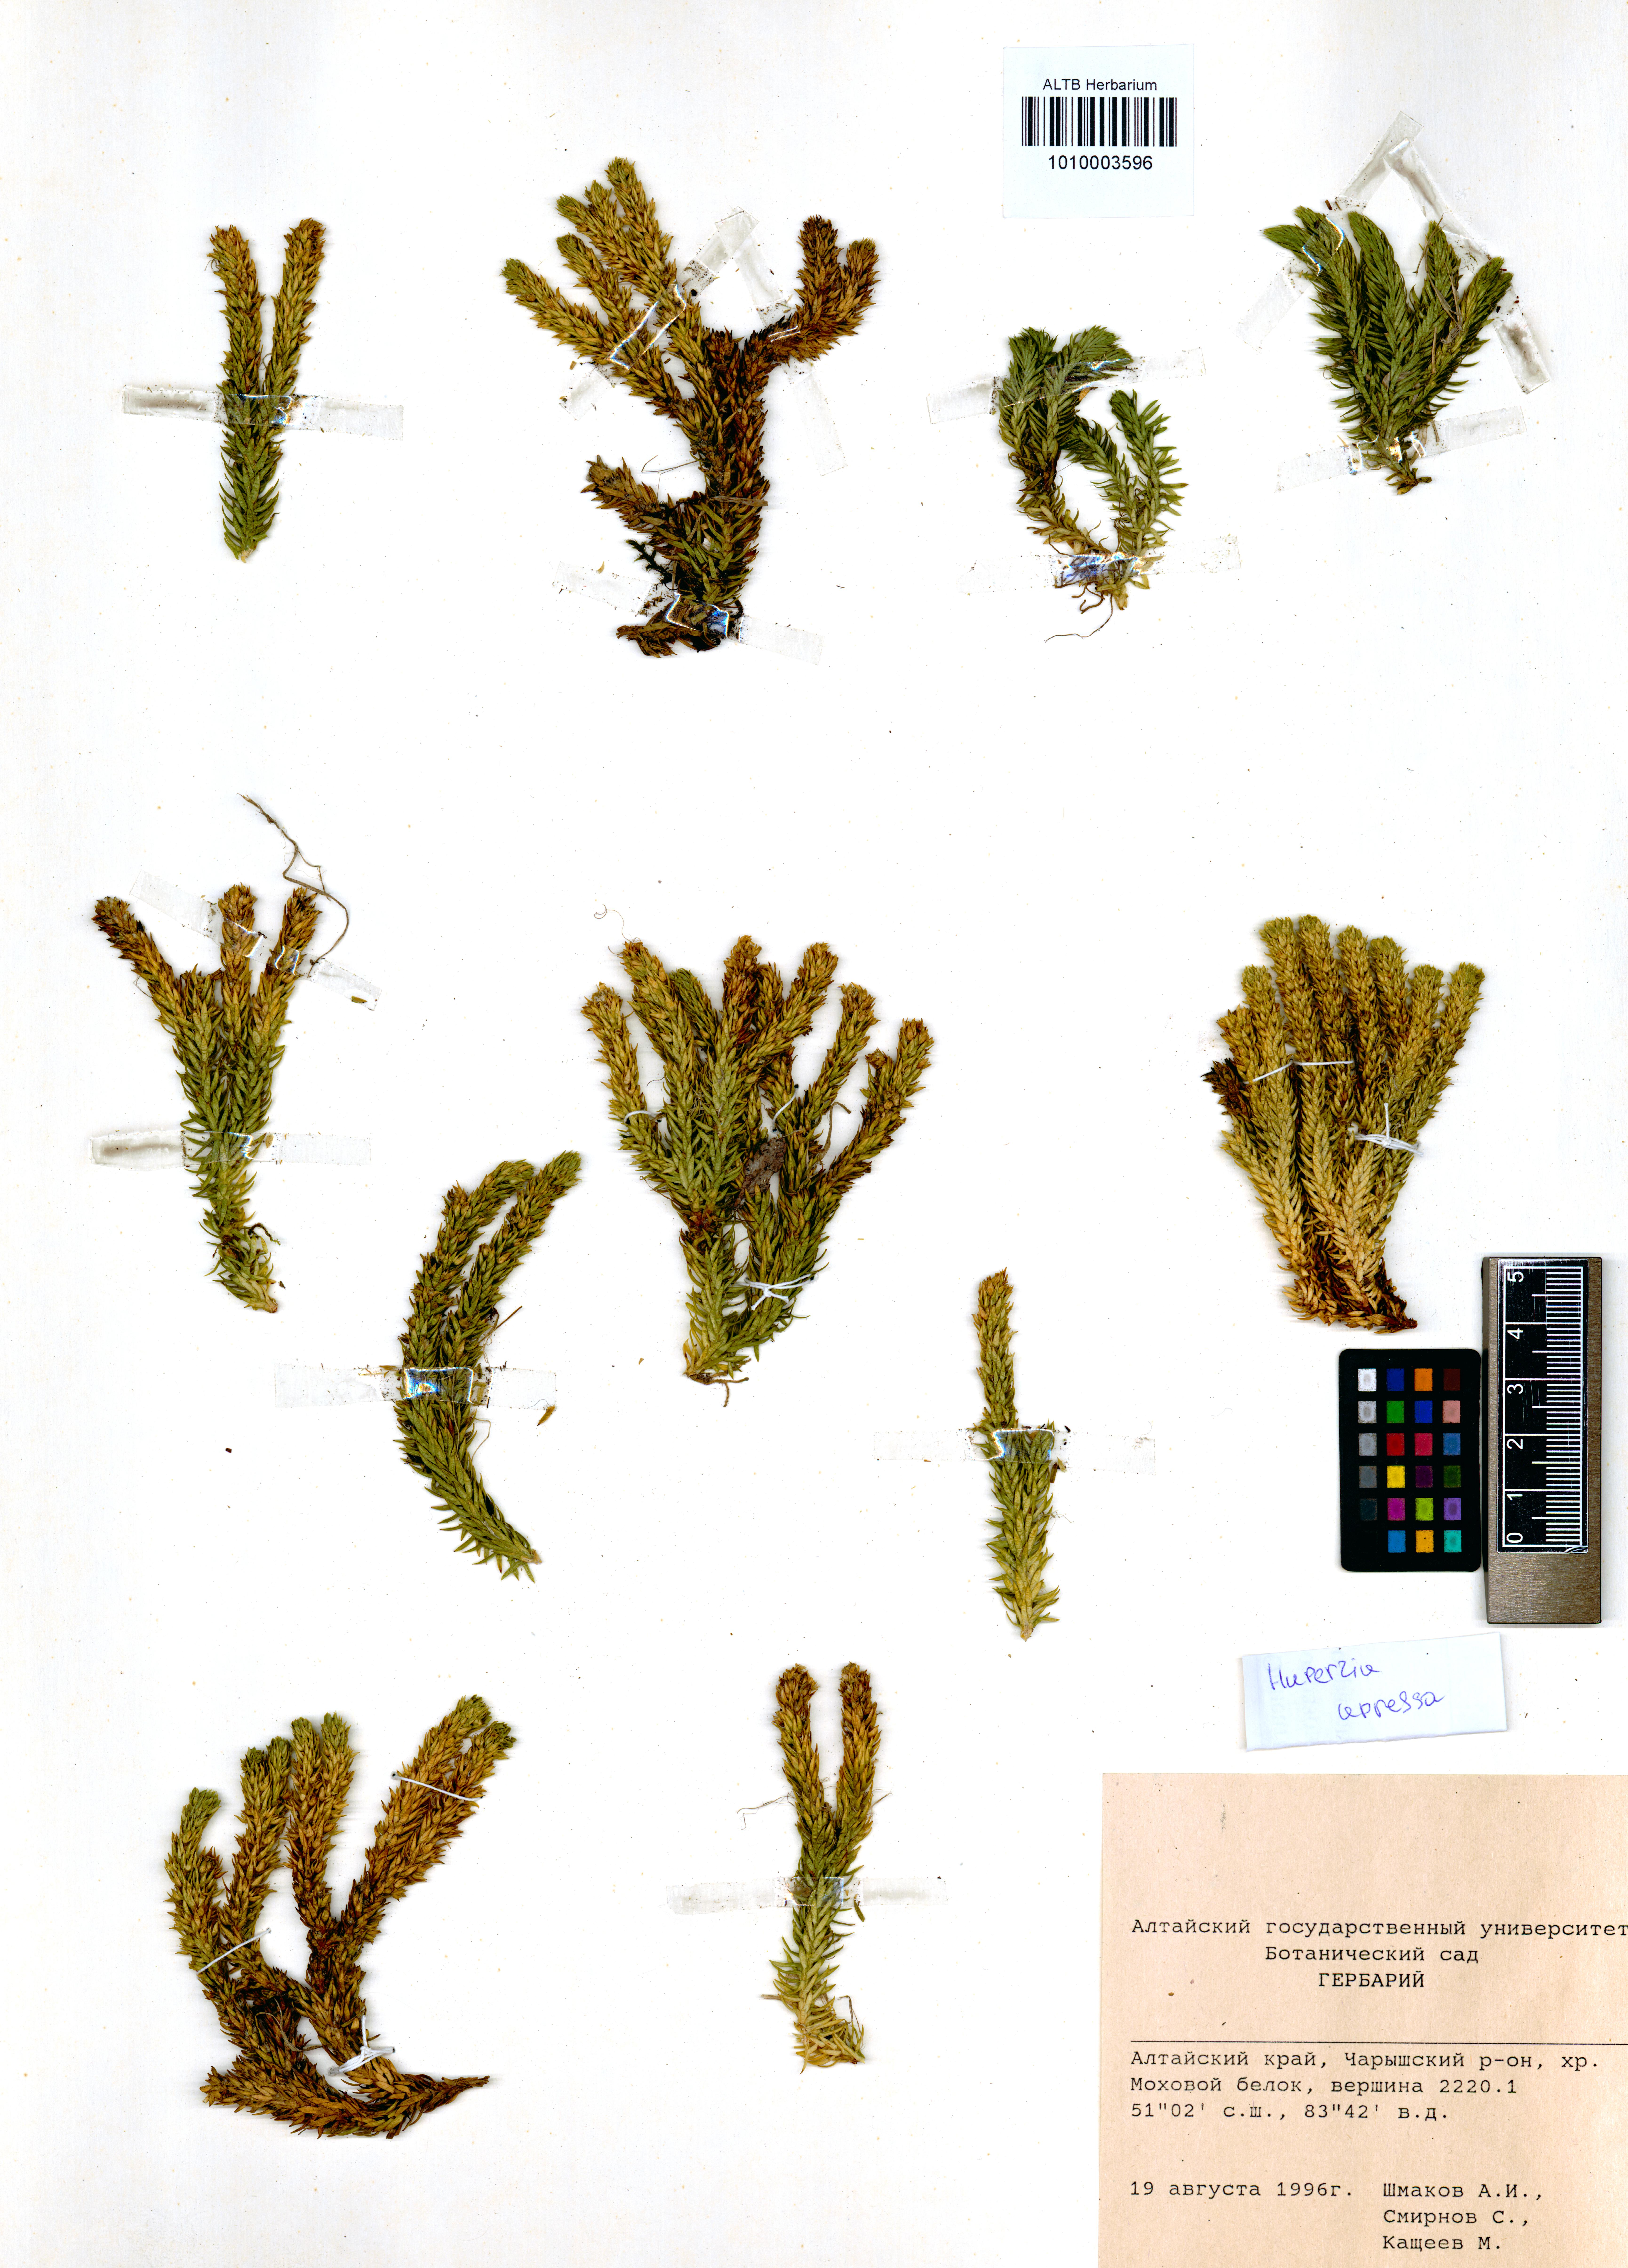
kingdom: Plantae
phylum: Tracheophyta
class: Lycopodiopsida
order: Lycopodiales
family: Lycopodiaceae
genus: Huperzia
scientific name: Huperzia selago
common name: Northern firmoss
